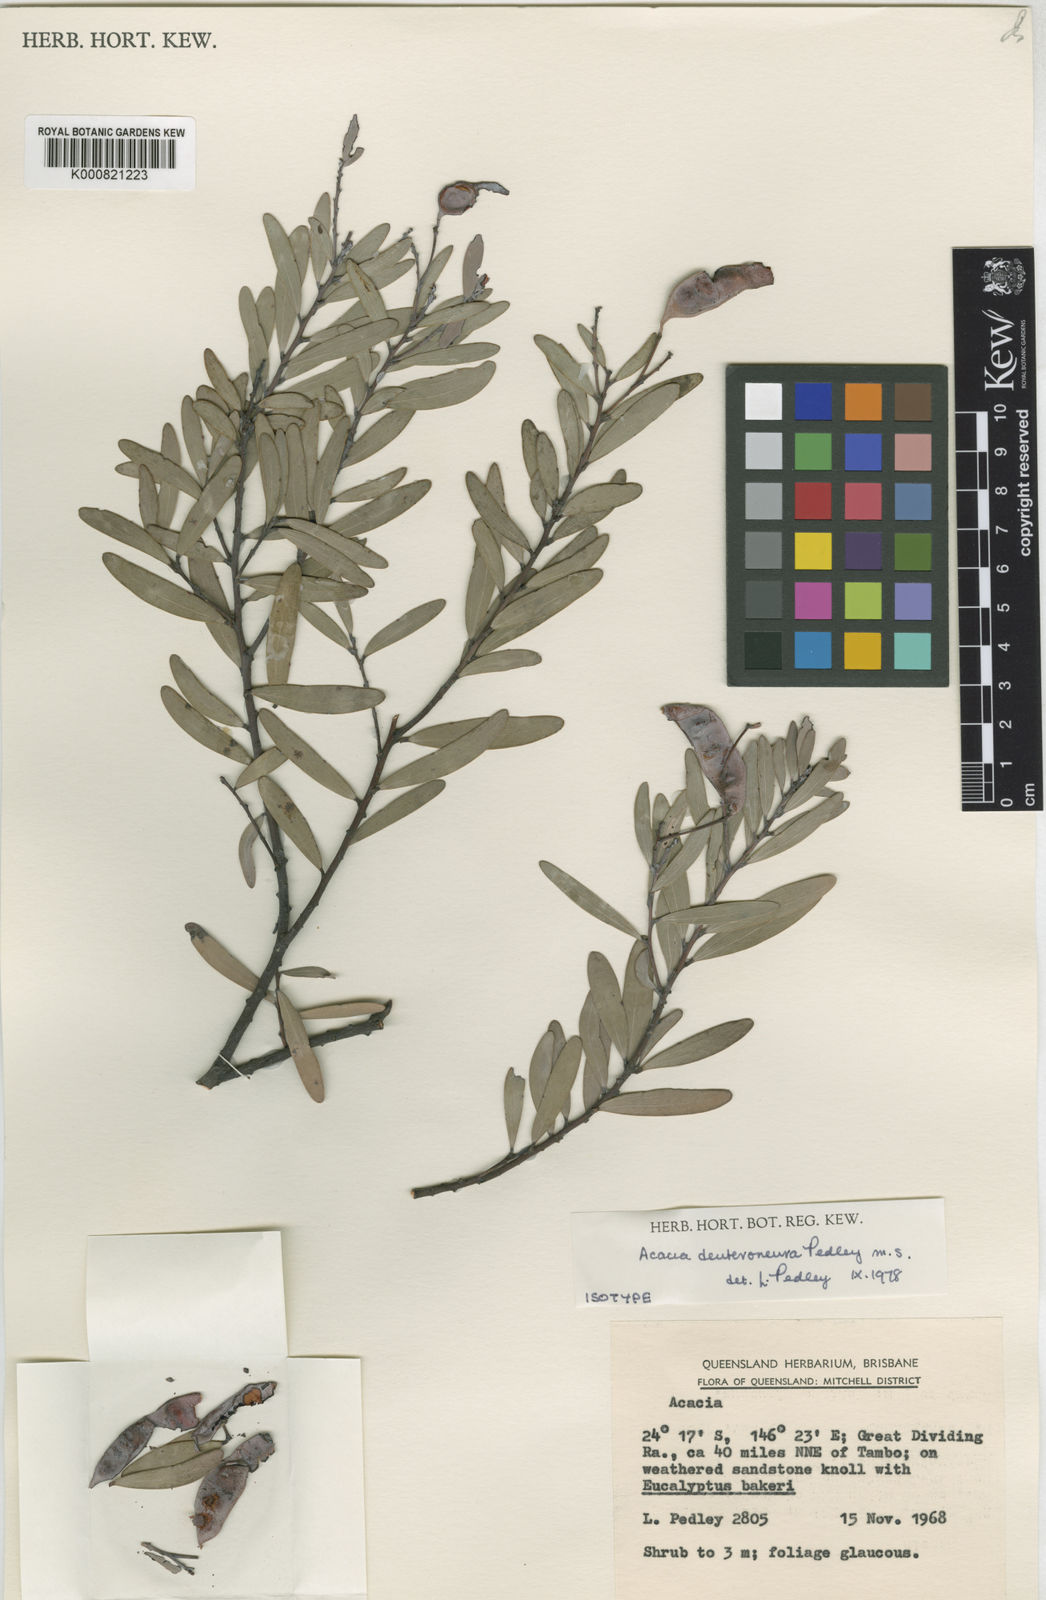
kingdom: Plantae
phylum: Tracheophyta
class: Magnoliopsida
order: Fabales
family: Fabaceae
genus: Acacia
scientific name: Acacia deuteroneura
